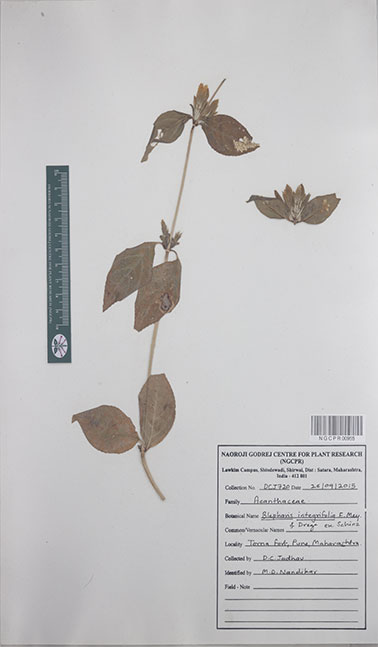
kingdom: Plantae
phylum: Tracheophyta
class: Magnoliopsida
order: Lamiales
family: Acanthaceae
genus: Blepharis
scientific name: Blepharis integrifolia
